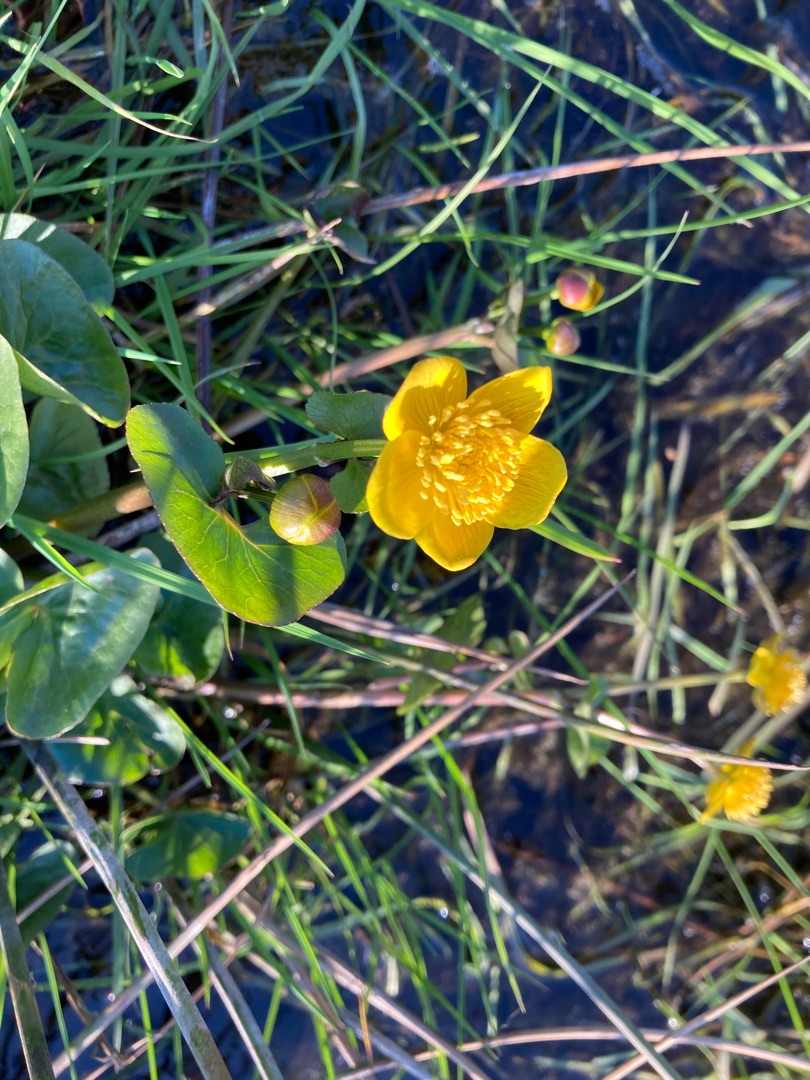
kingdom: Plantae
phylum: Tracheophyta
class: Magnoliopsida
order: Ranunculales
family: Ranunculaceae
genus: Caltha
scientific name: Caltha palustris
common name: Eng-kabbeleje
